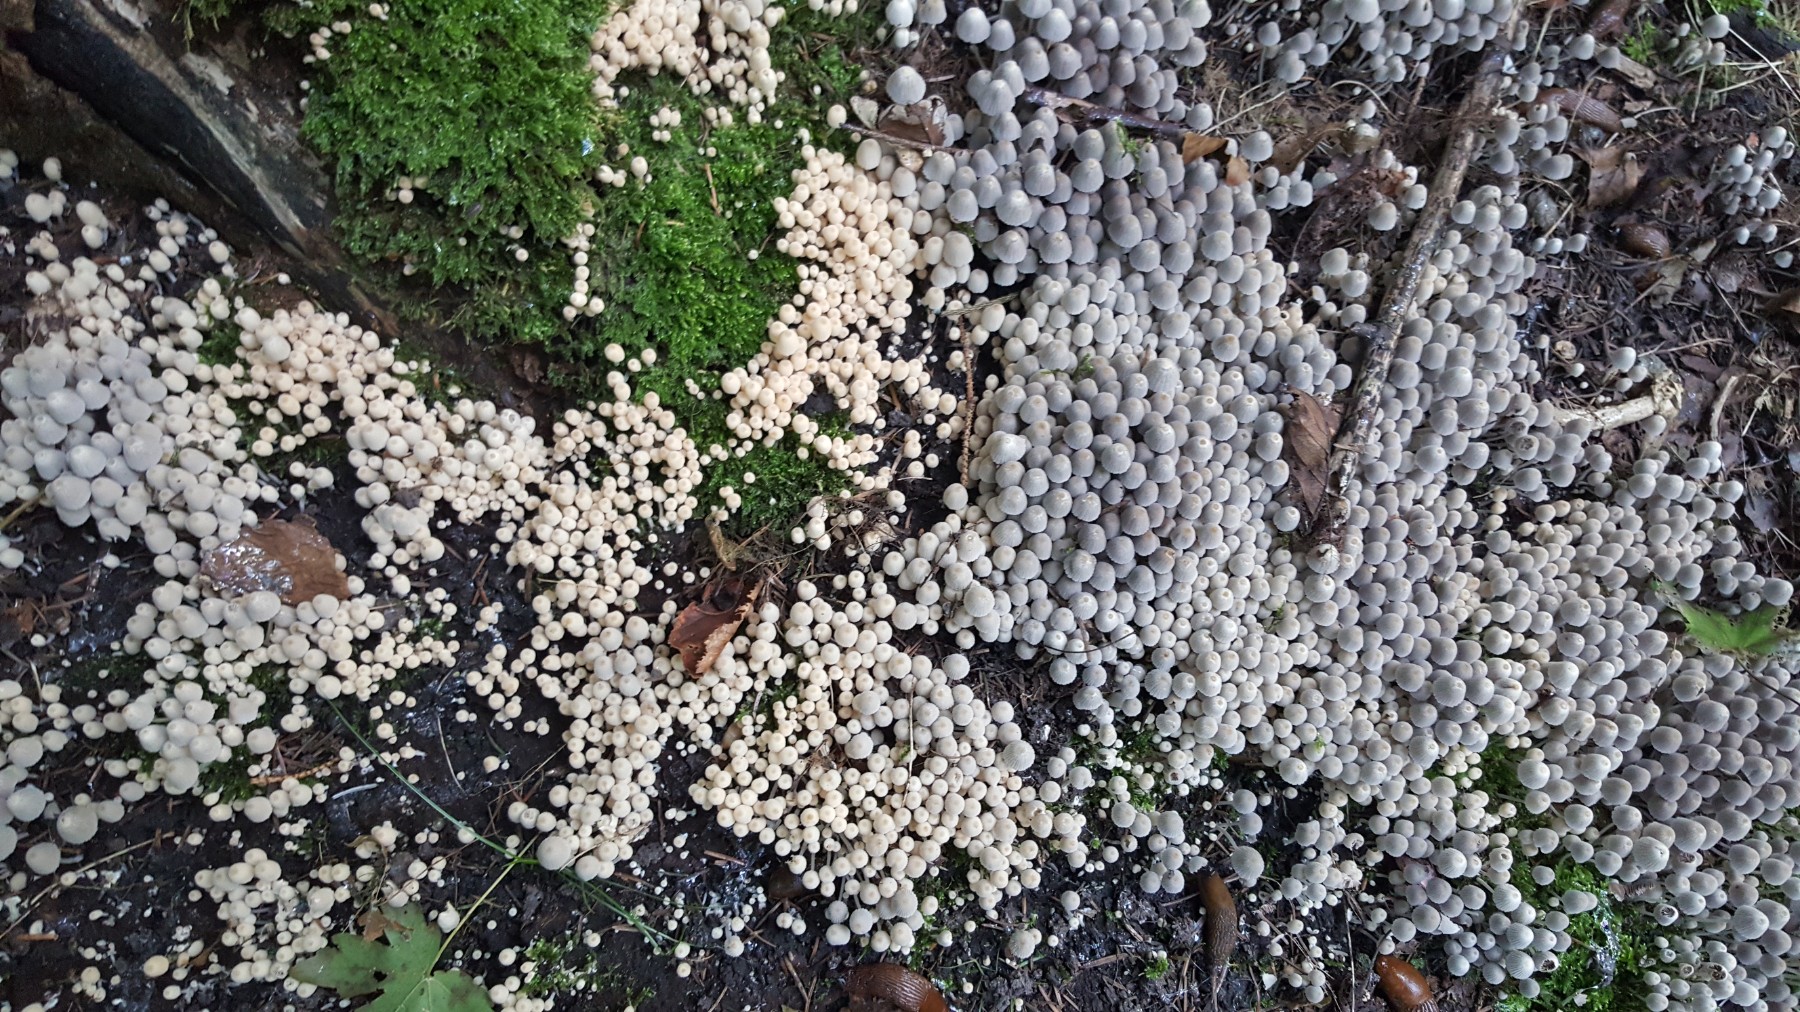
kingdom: Fungi
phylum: Basidiomycota
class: Agaricomycetes
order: Agaricales
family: Psathyrellaceae
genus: Coprinellus
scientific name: Coprinellus disseminatus
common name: bredsået blækhat
